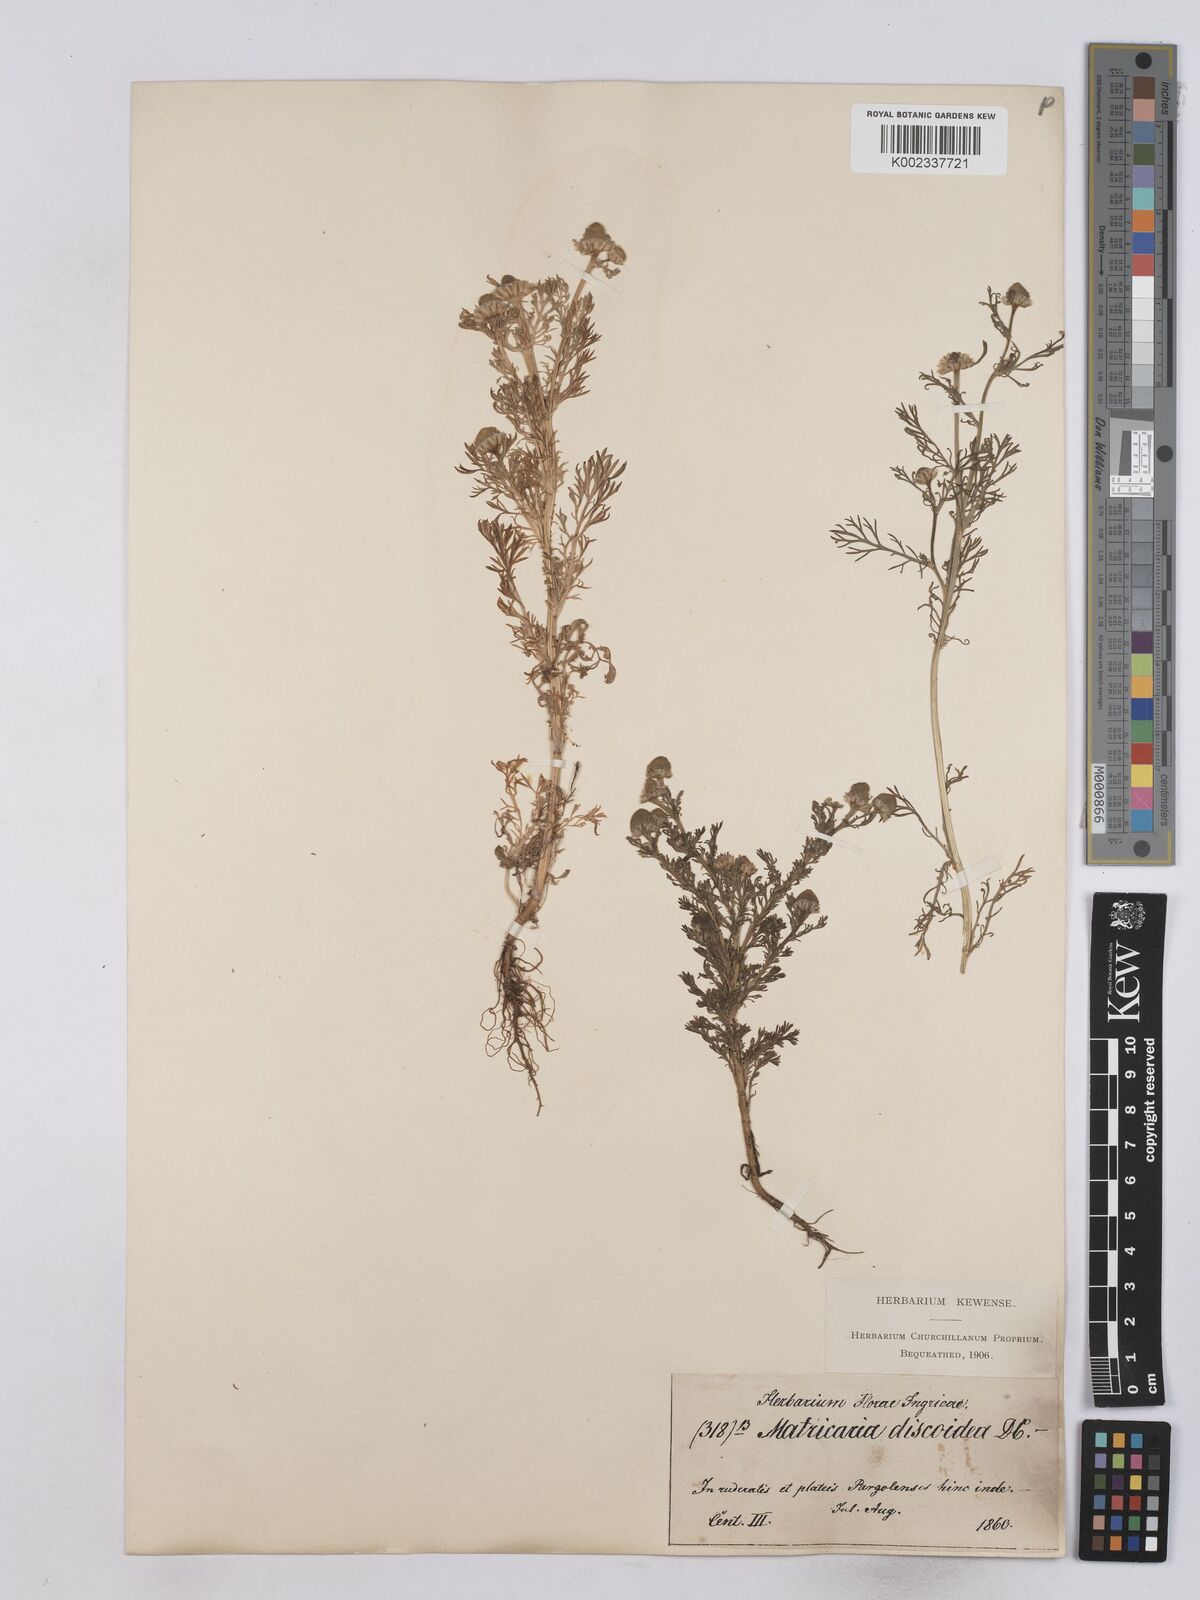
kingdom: Plantae
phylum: Tracheophyta
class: Magnoliopsida
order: Asterales
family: Asteraceae
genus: Matricaria
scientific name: Matricaria discoidea
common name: Disc mayweed
